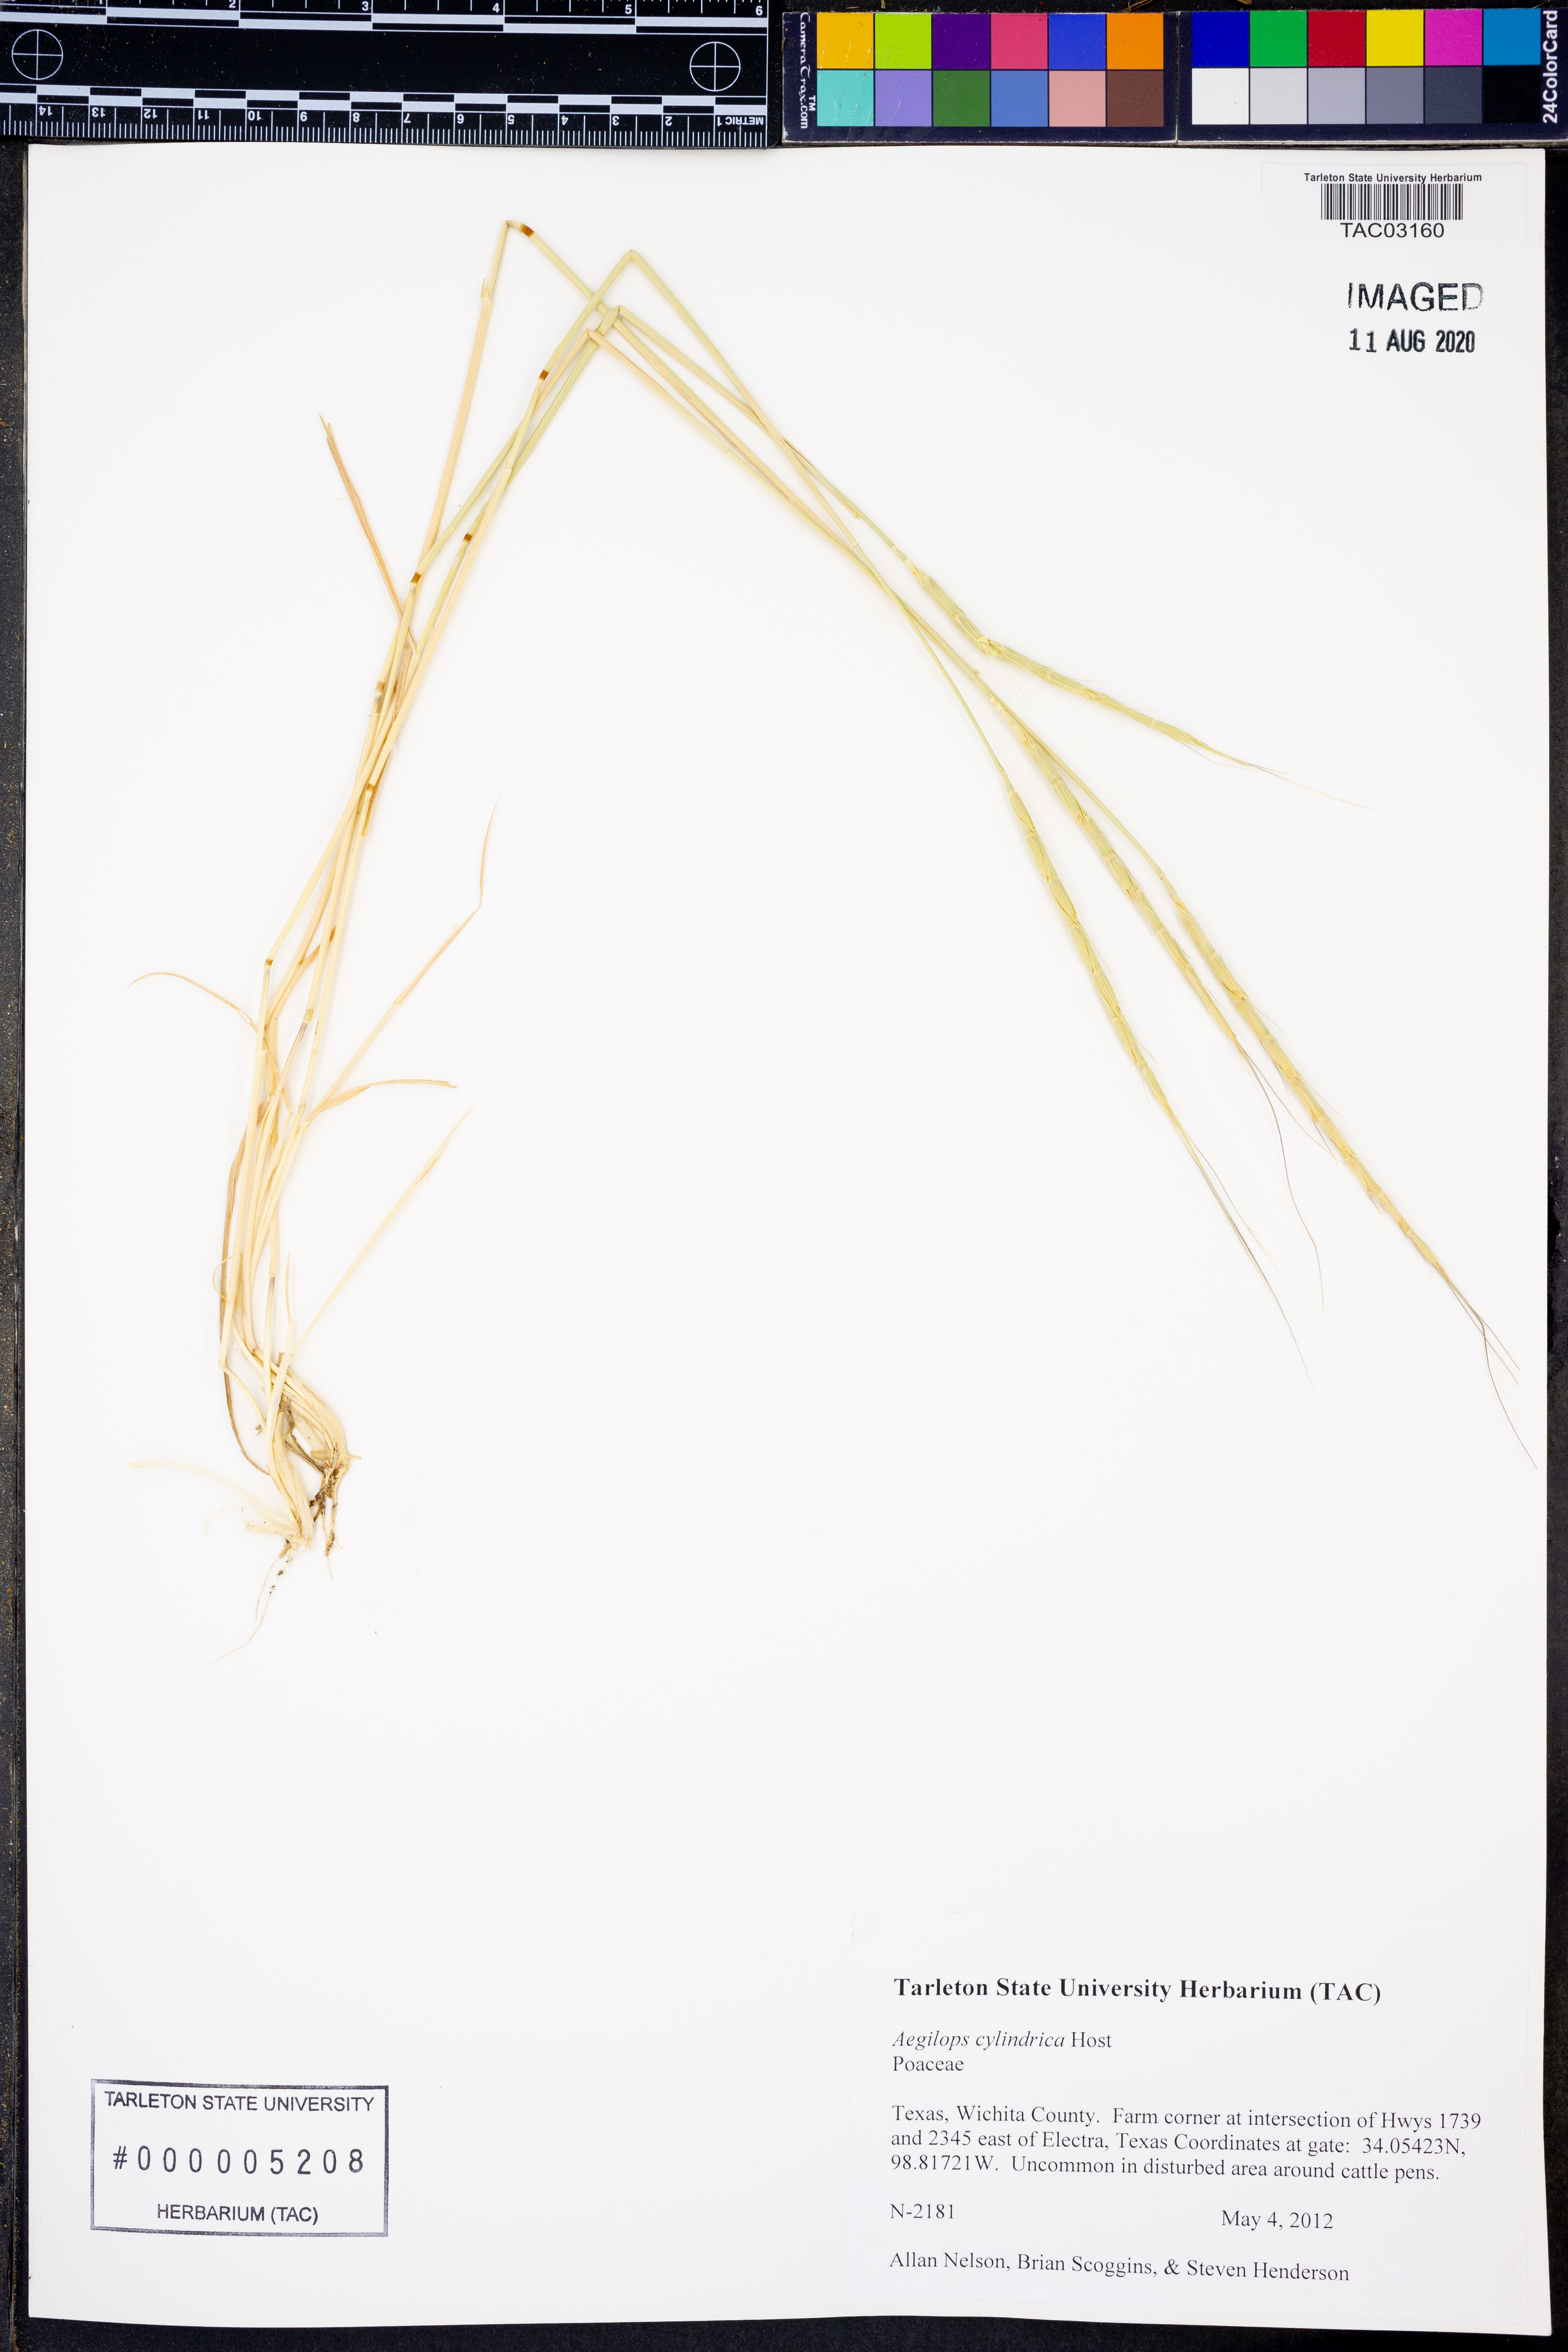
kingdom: Plantae
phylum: Tracheophyta
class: Liliopsida
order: Poales
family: Poaceae
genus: Aegilops
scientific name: Aegilops cylindrica
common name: Jointed goatgrass
